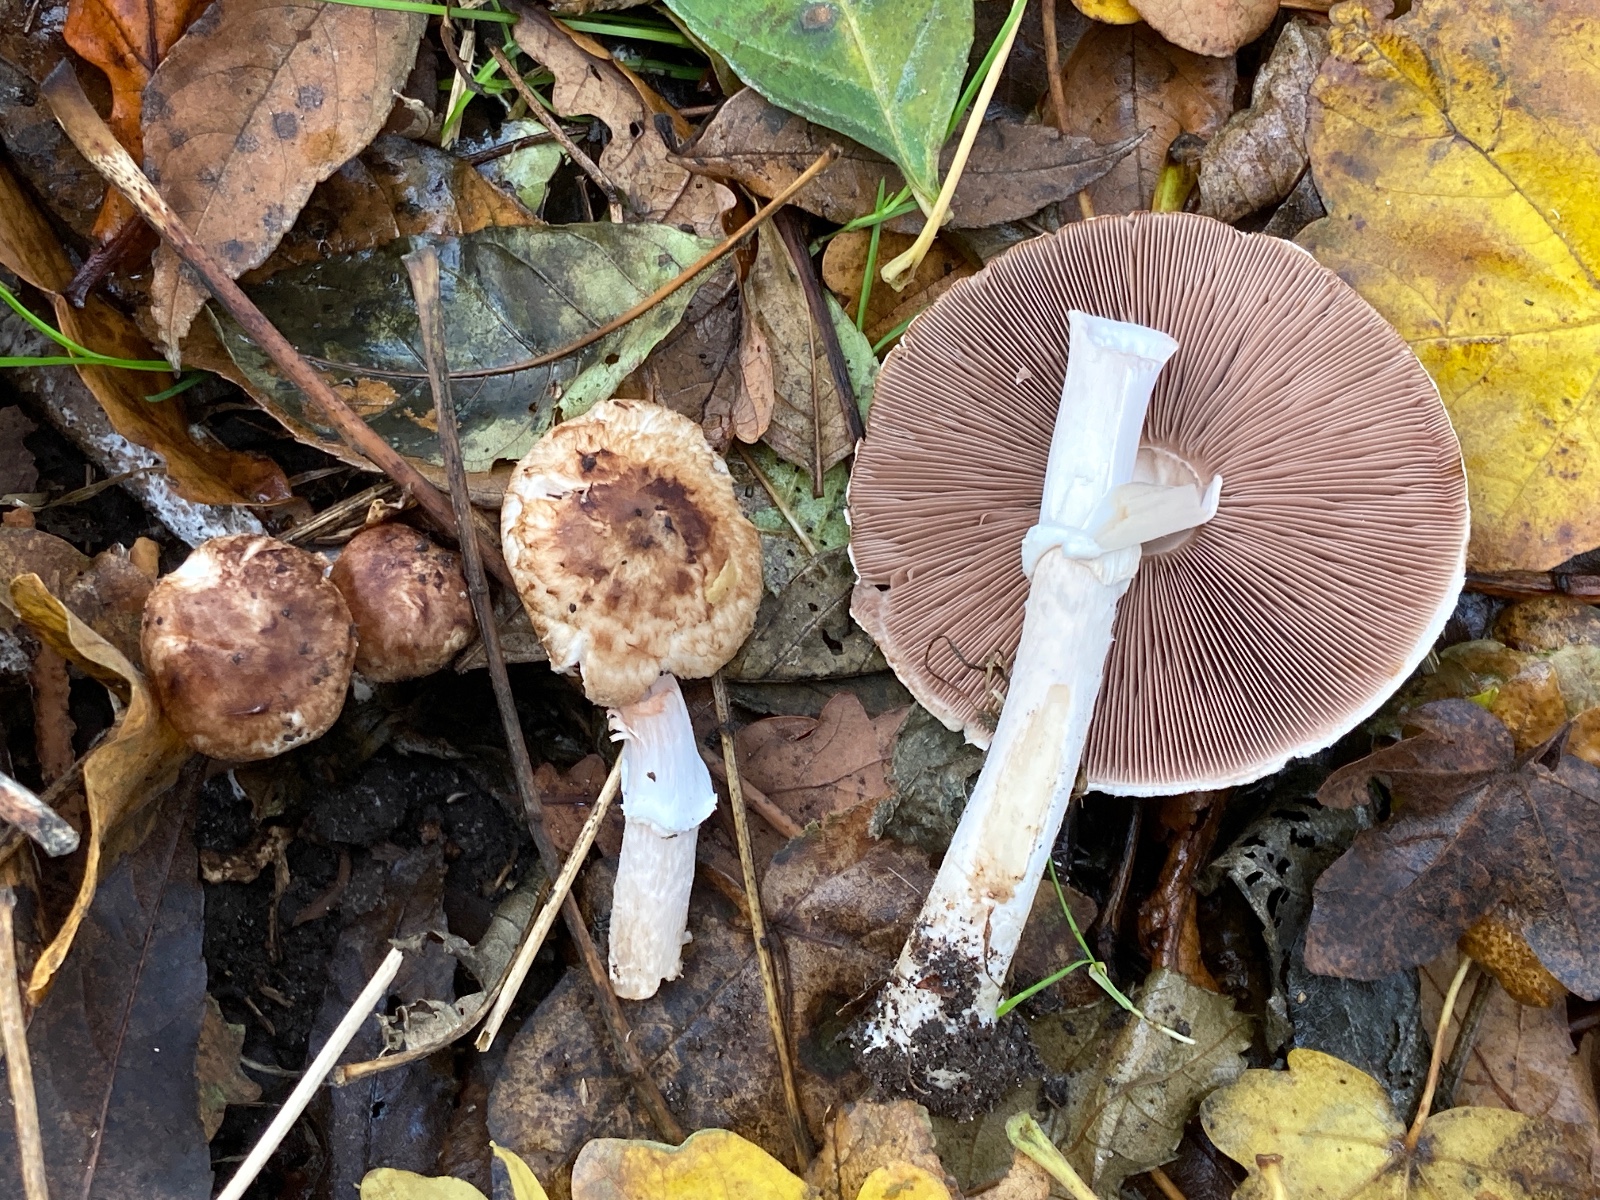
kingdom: Fungi
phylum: Basidiomycota
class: Agaricomycetes
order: Agaricales
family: Agaricaceae
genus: Agaricus
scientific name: Agaricus impudicus
